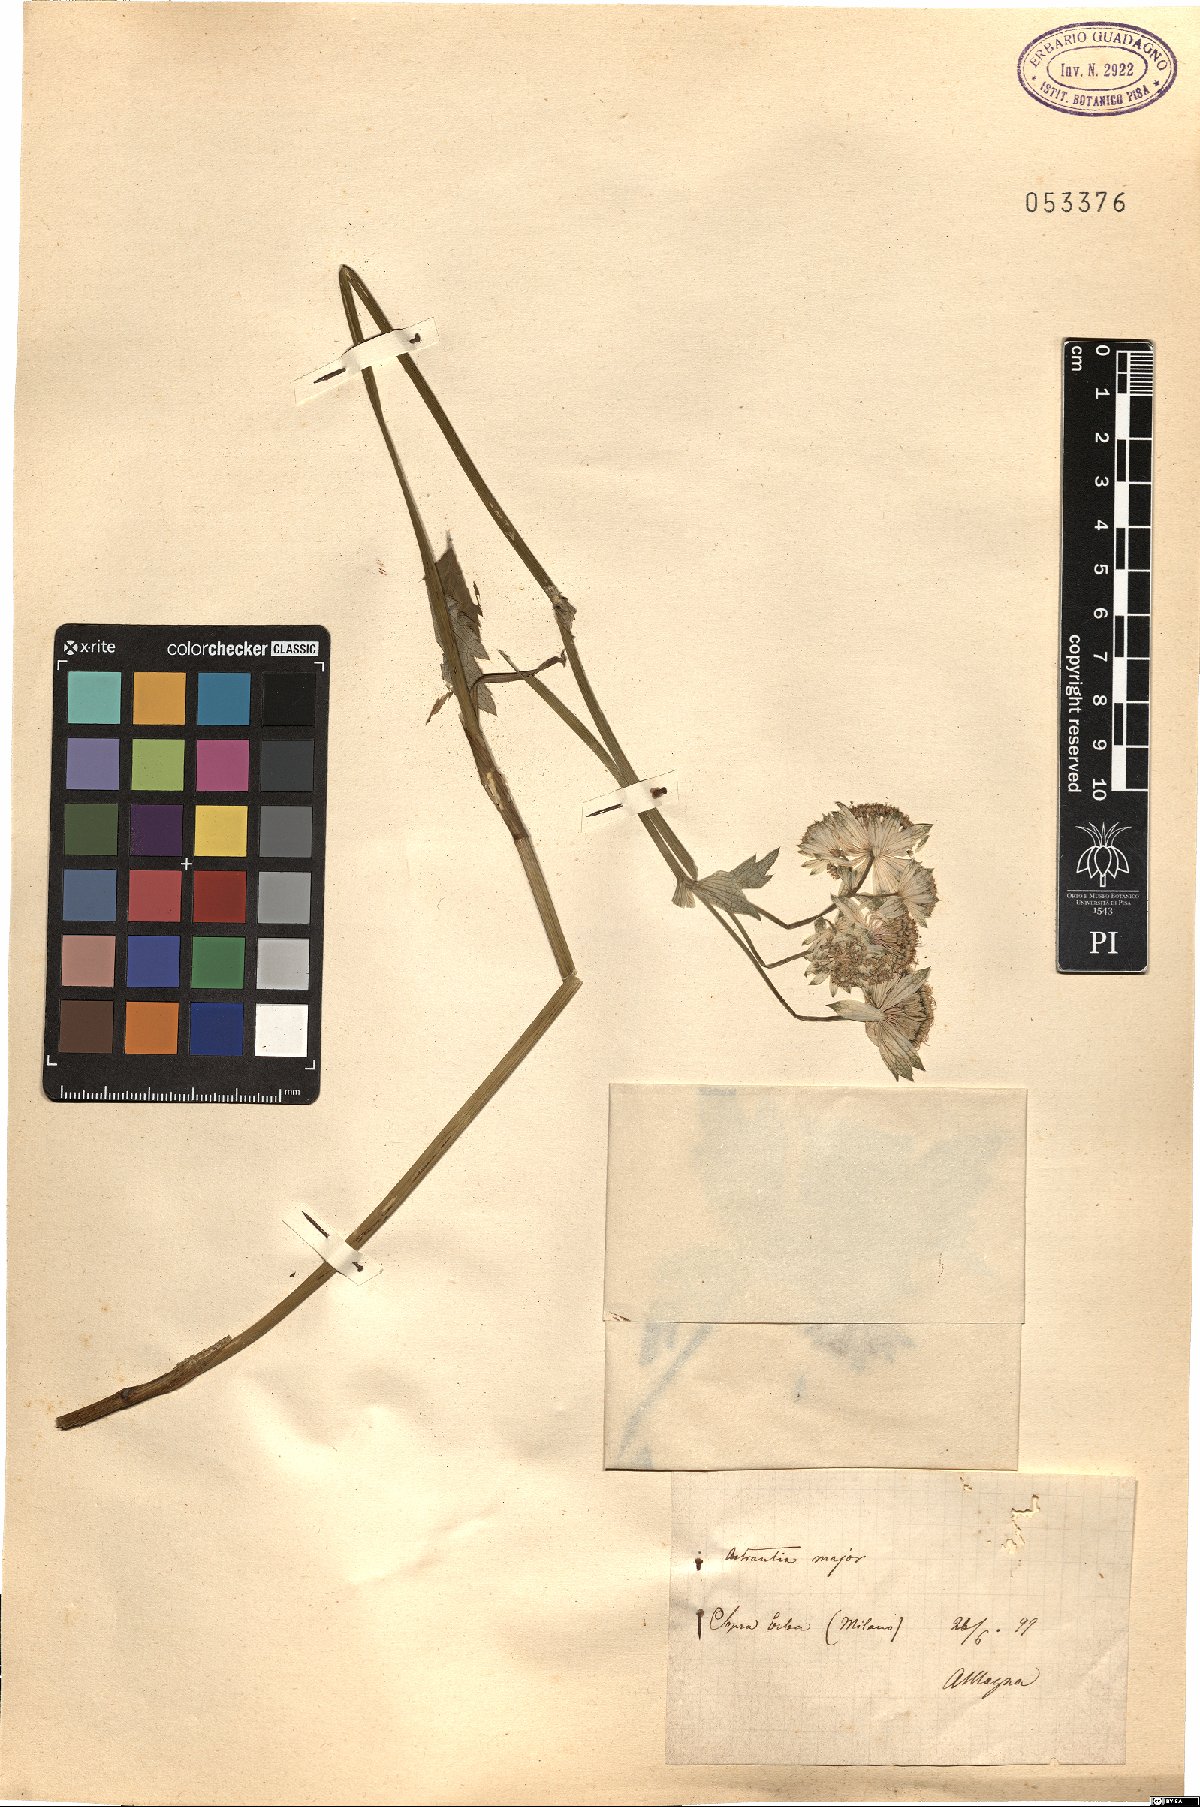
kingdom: Plantae
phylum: Tracheophyta
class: Magnoliopsida
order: Apiales
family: Apiaceae
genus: Astrantia
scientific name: Astrantia major
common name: Greater masterwort
